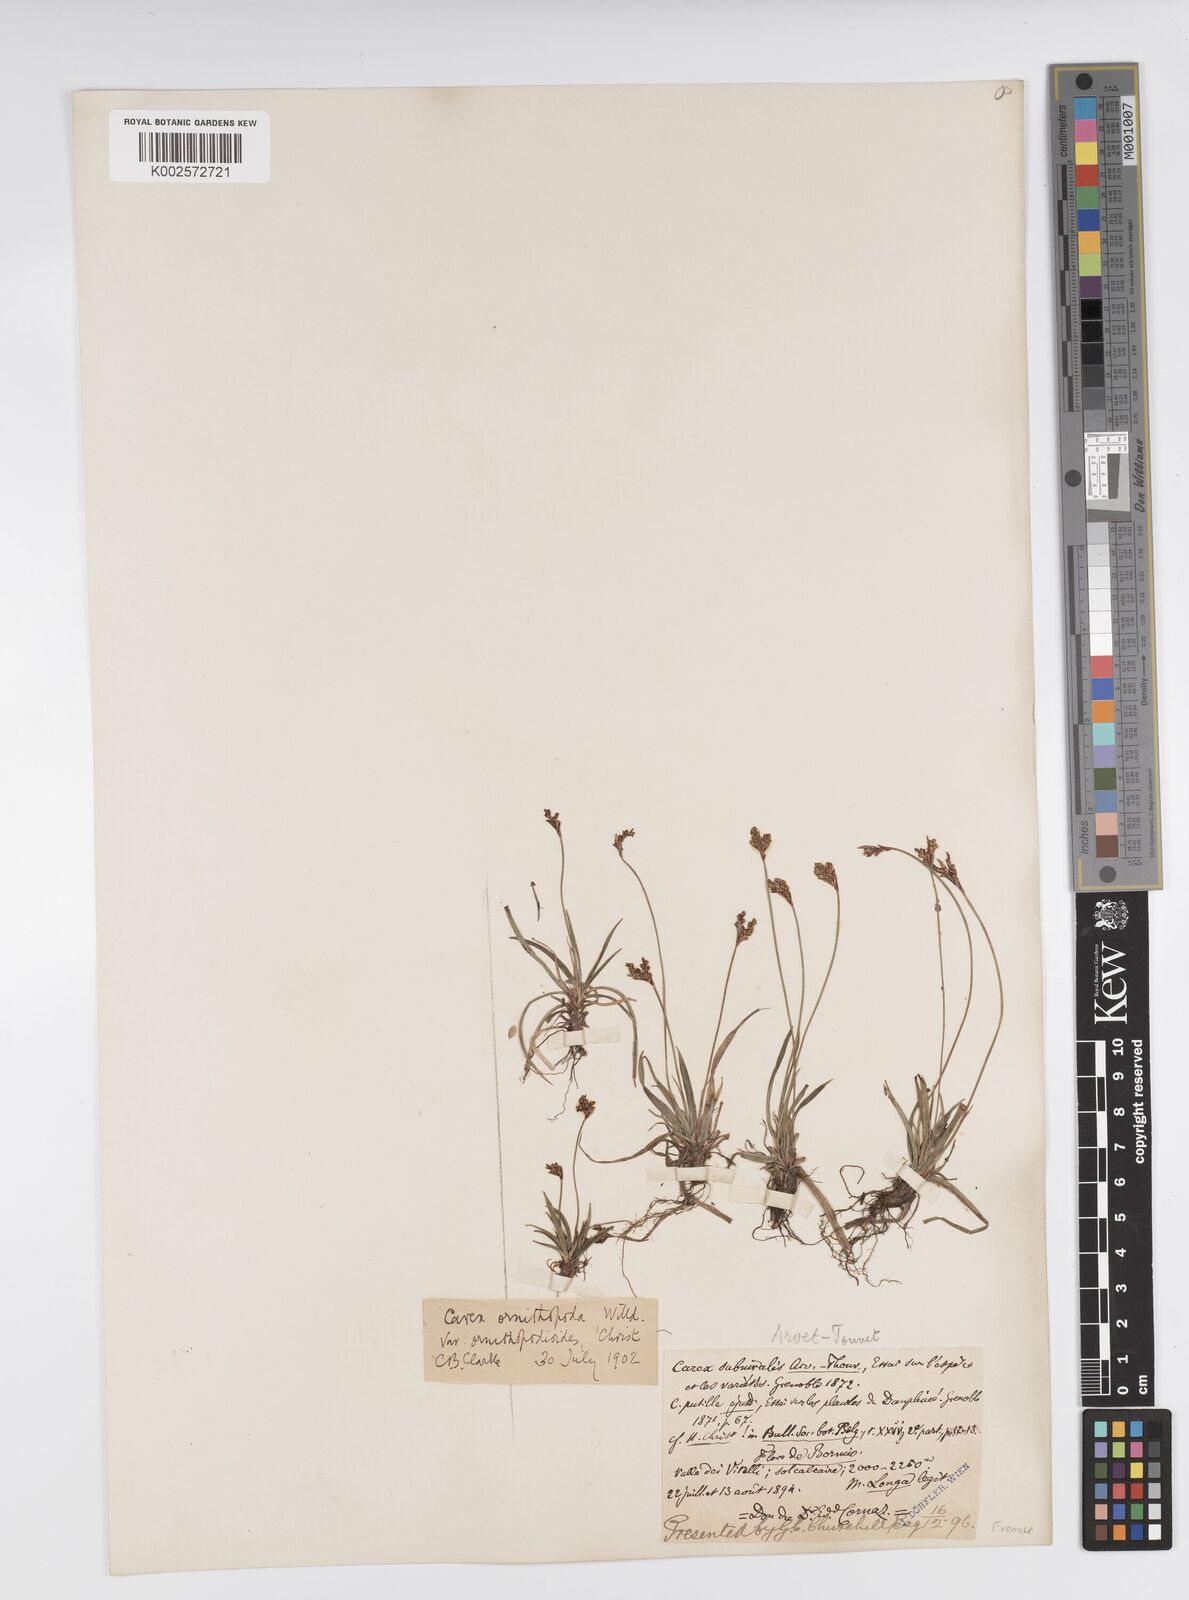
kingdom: Plantae
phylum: Tracheophyta
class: Liliopsida
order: Poales
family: Cyperaceae
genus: Carex
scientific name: Carex ornithopoda
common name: Bird's-foot sedge
